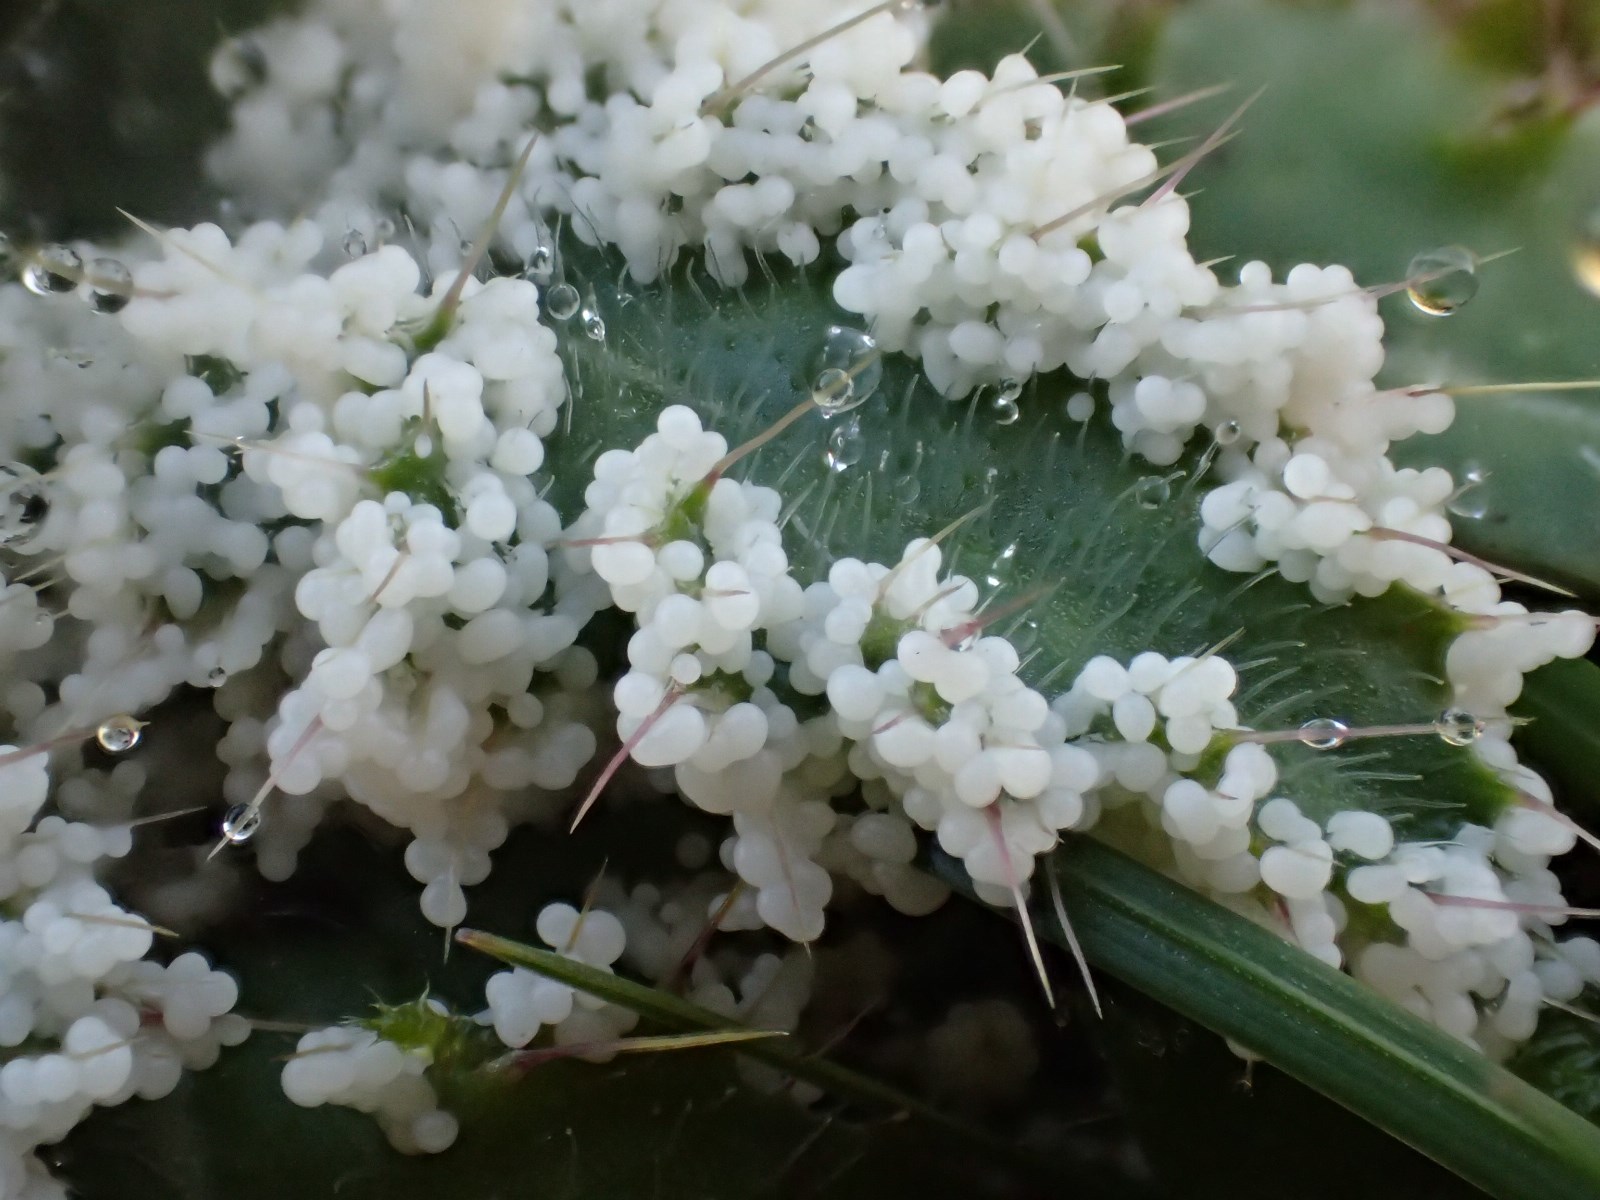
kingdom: Protozoa
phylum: Mycetozoa
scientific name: Mycetozoa
